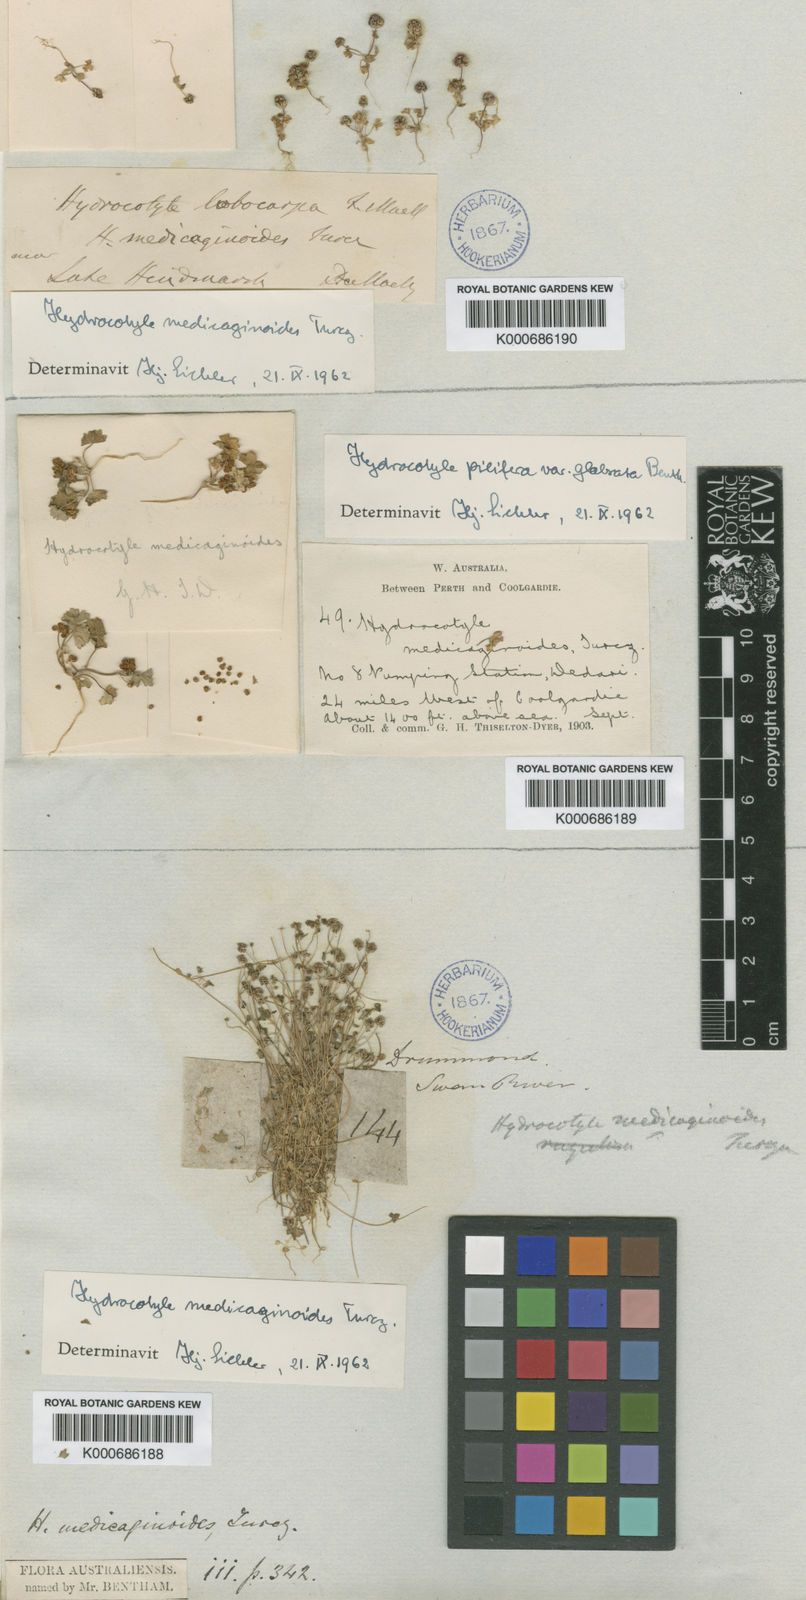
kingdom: Plantae
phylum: Tracheophyta
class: Magnoliopsida
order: Apiales
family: Araliaceae
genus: Hydrocotyle
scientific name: Hydrocotyle medicaginoides
